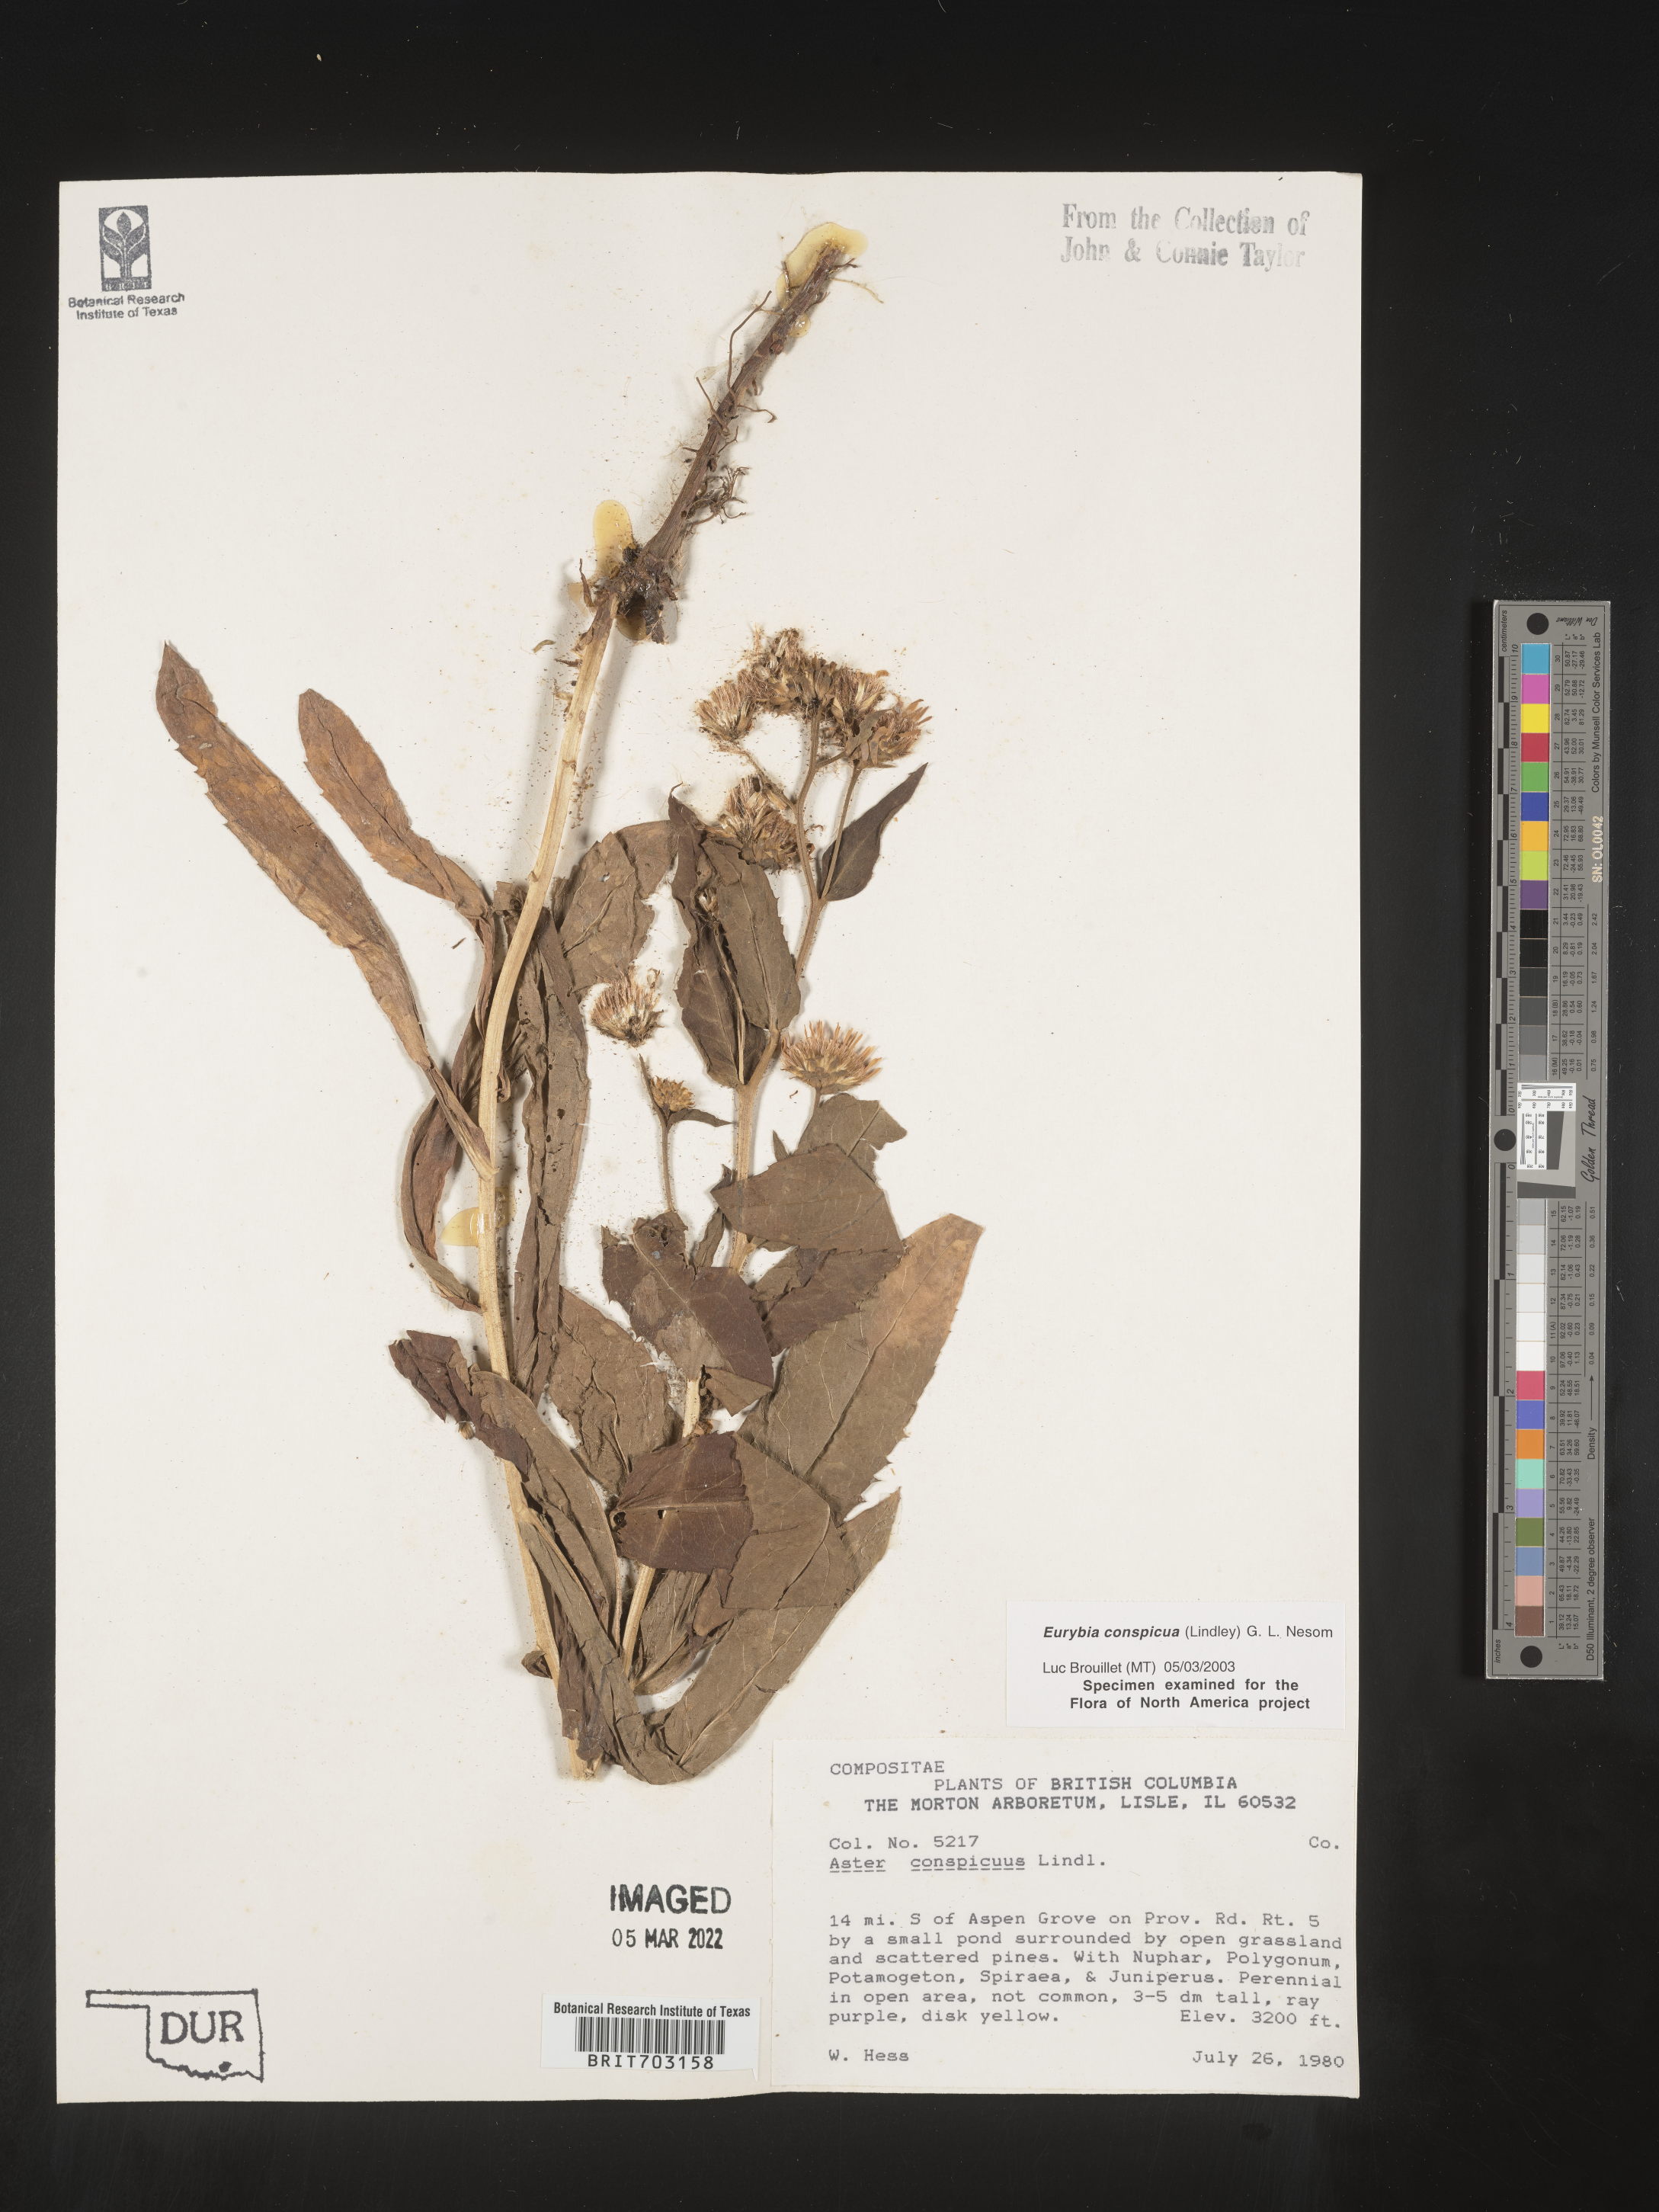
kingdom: Plantae
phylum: Tracheophyta
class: Magnoliopsida
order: Asterales
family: Asteraceae
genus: Eurybia
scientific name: Eurybia conspicua
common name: Showy aster
